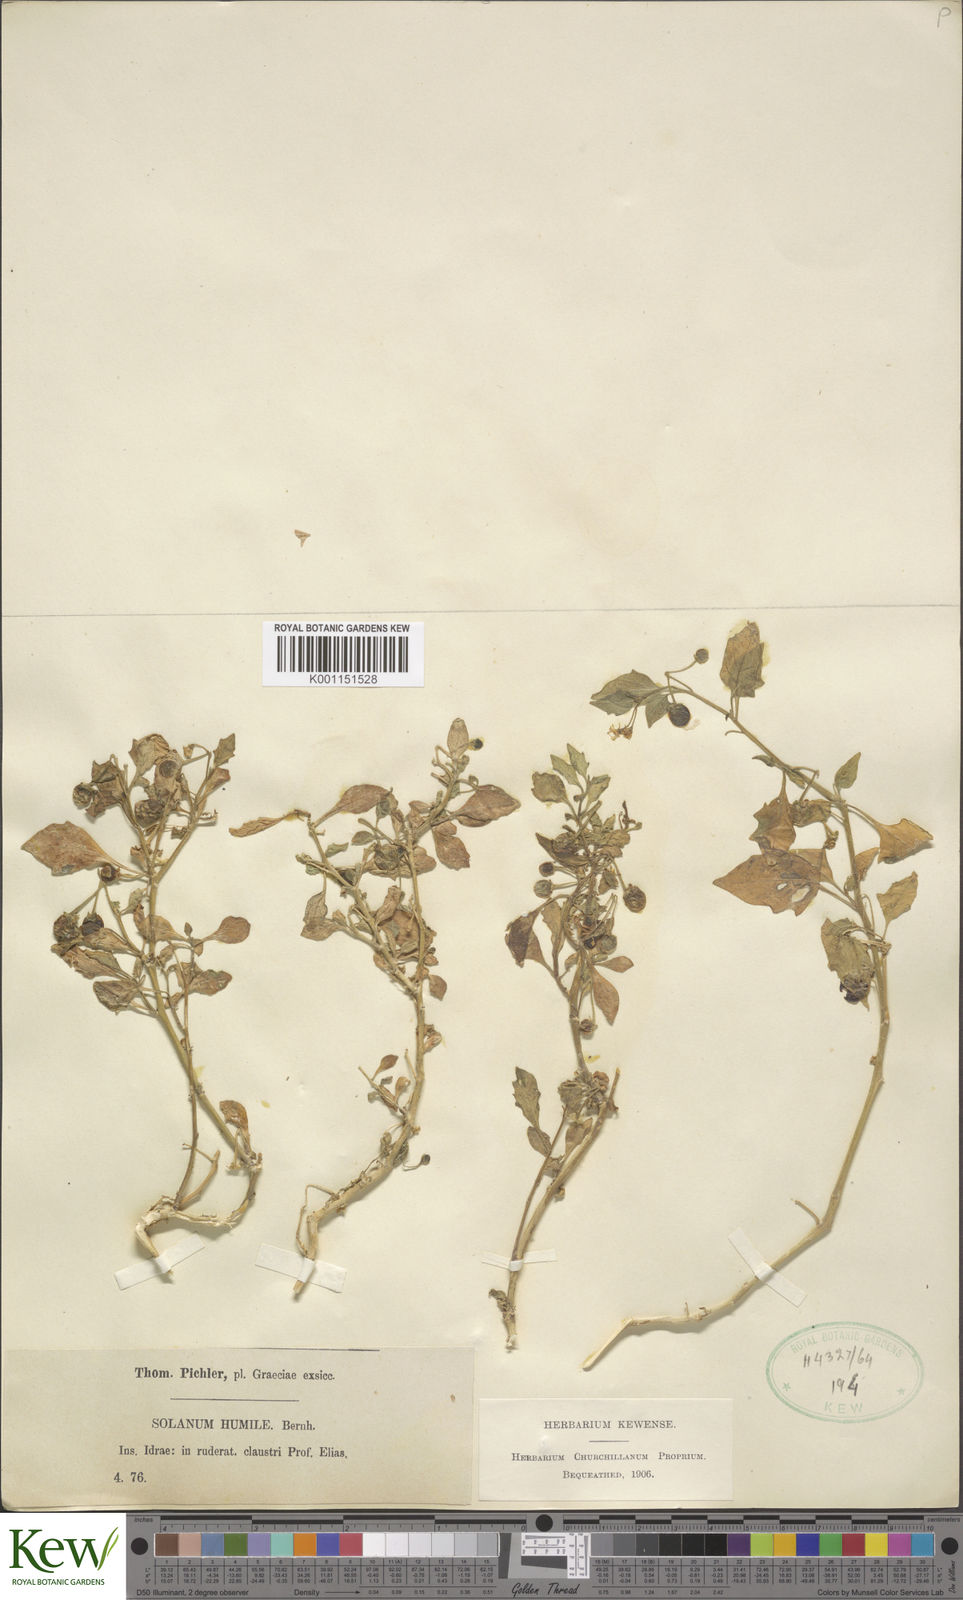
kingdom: Plantae
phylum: Tracheophyta
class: Magnoliopsida
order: Solanales
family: Solanaceae
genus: Solanum
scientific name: Solanum villosum
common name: Red nightshade
